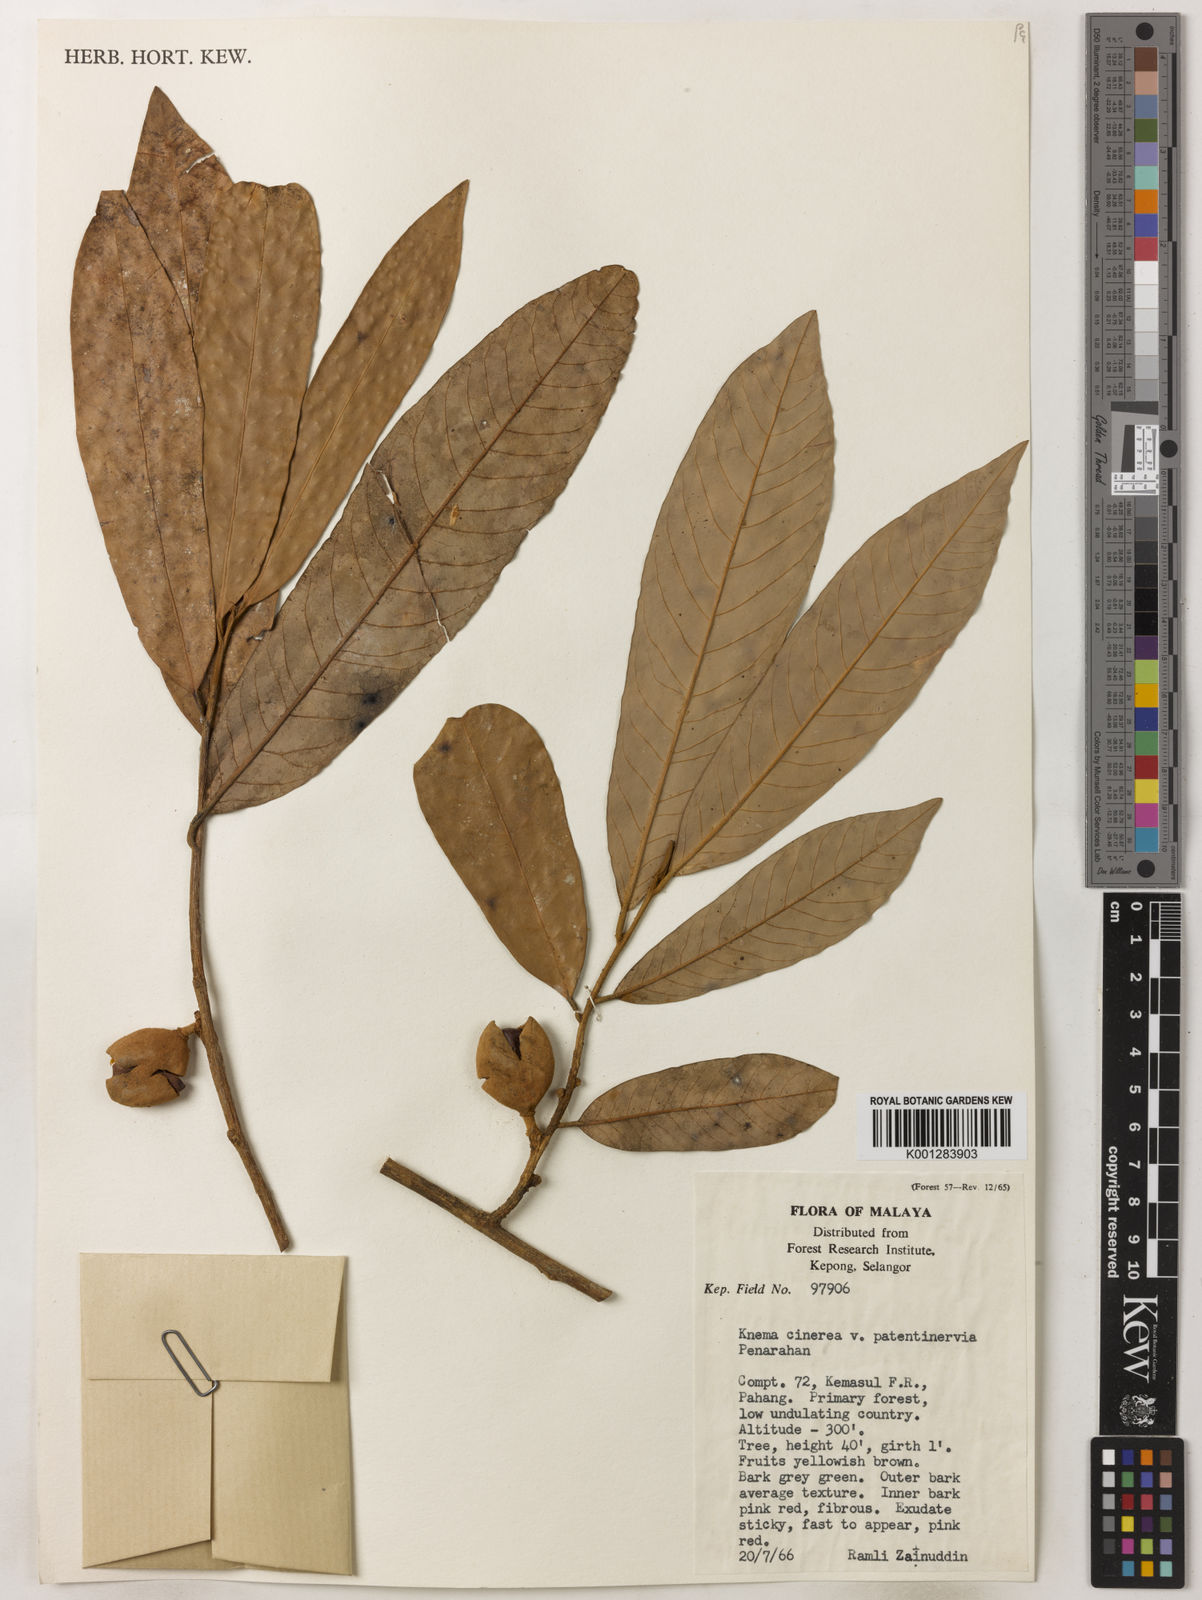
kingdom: Plantae
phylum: Tracheophyta
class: Magnoliopsida
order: Magnoliales
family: Myristicaceae
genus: Knema
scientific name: Knema
